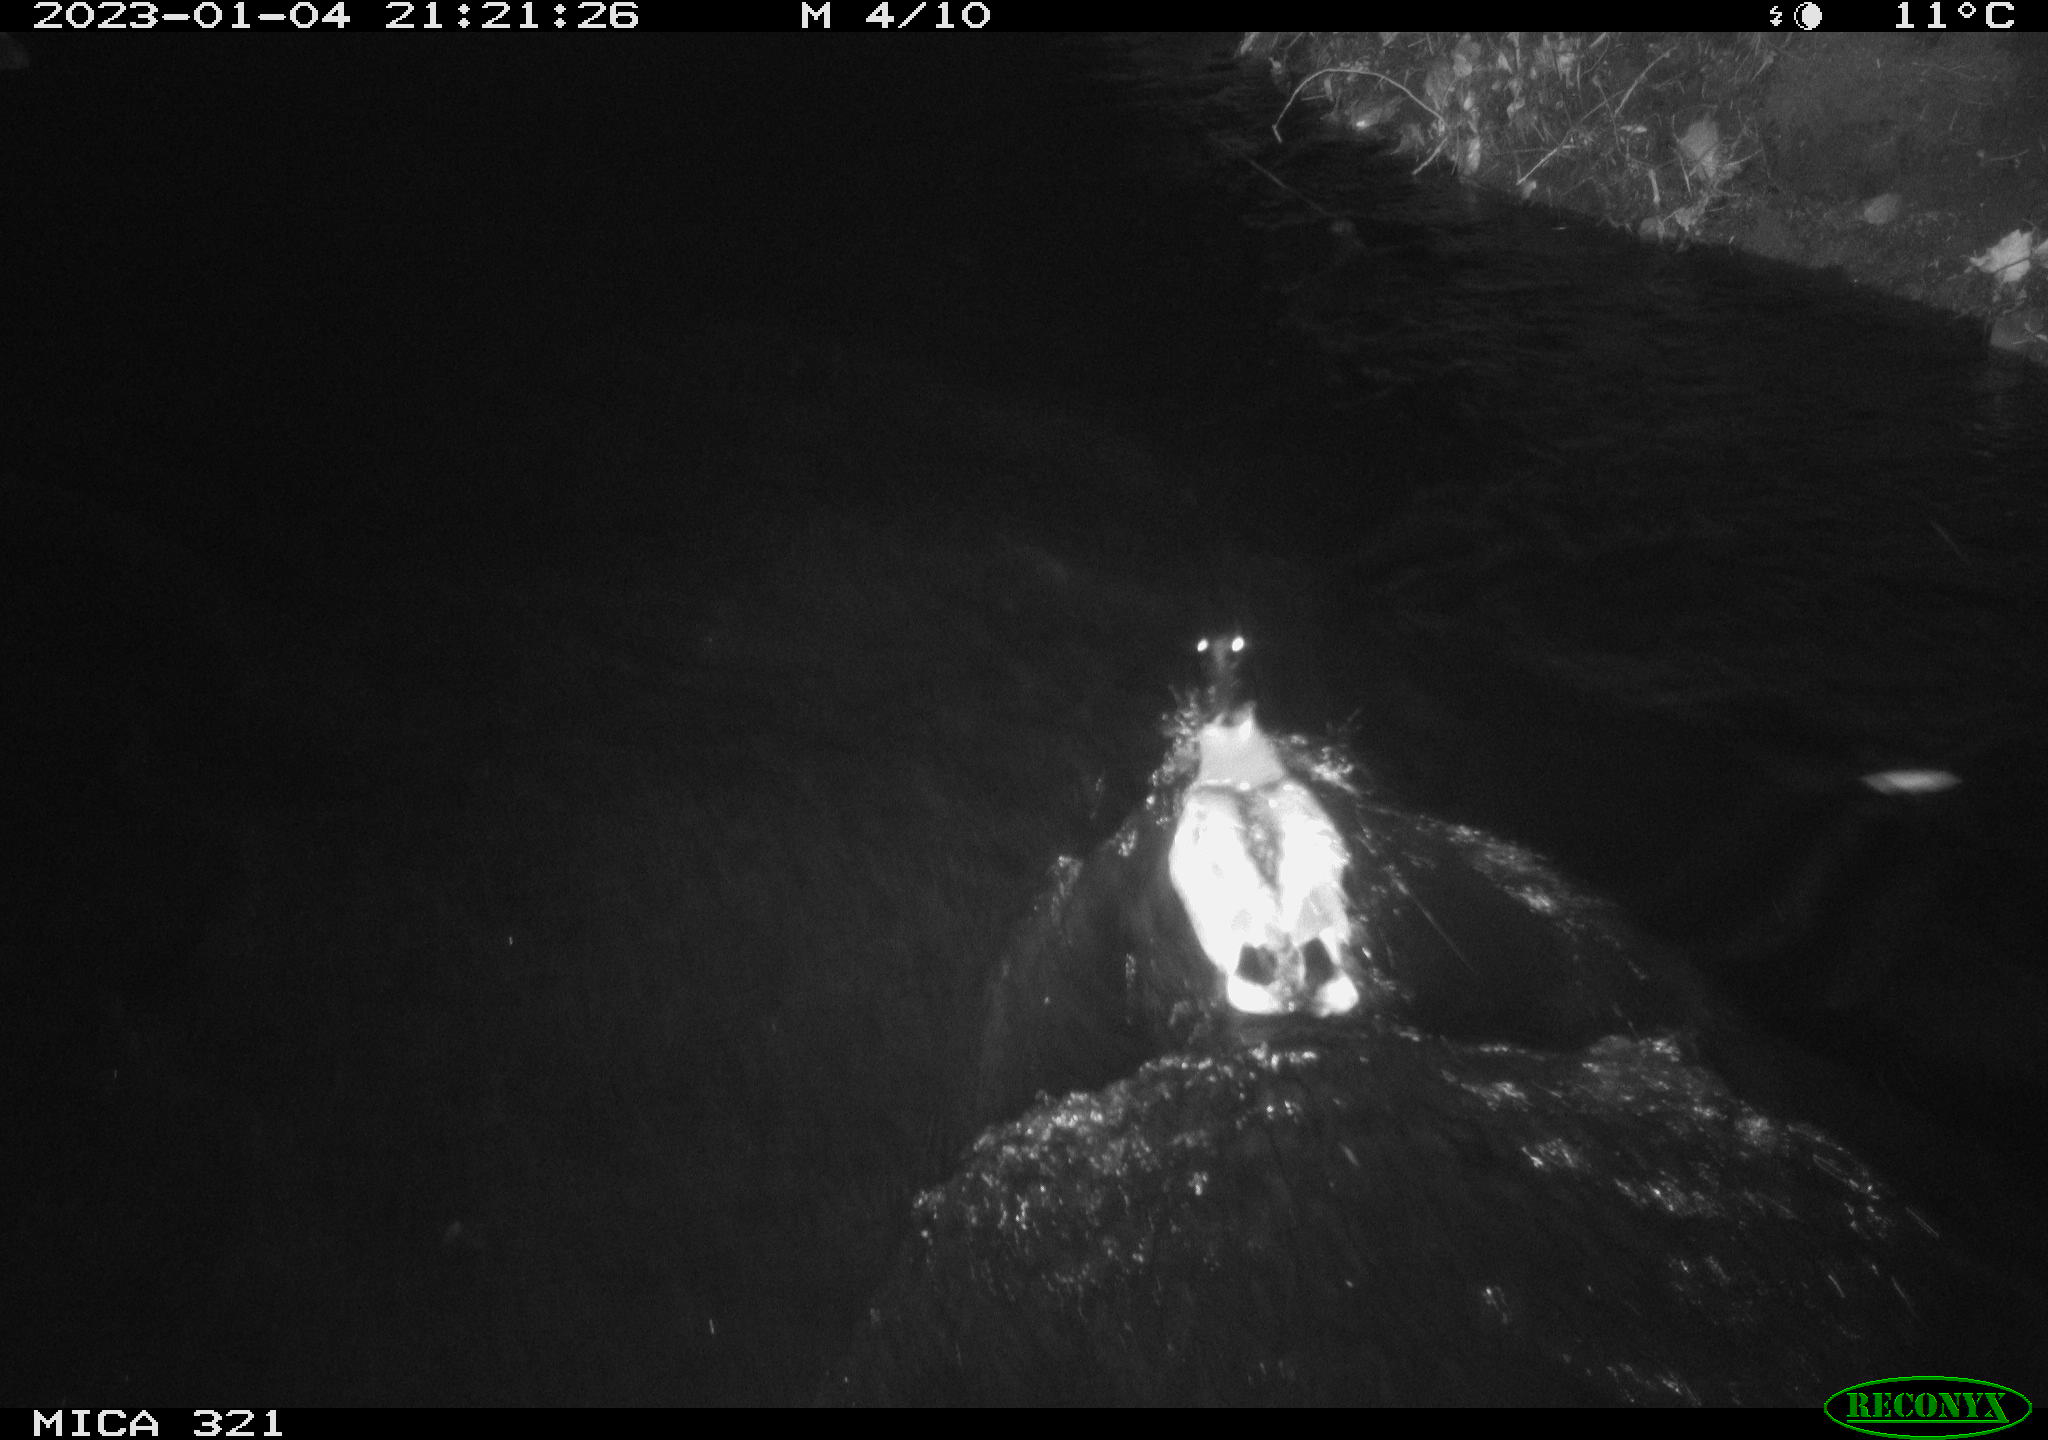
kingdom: Animalia
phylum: Chordata
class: Aves
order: Anseriformes
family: Anatidae
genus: Anas
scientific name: Anas
